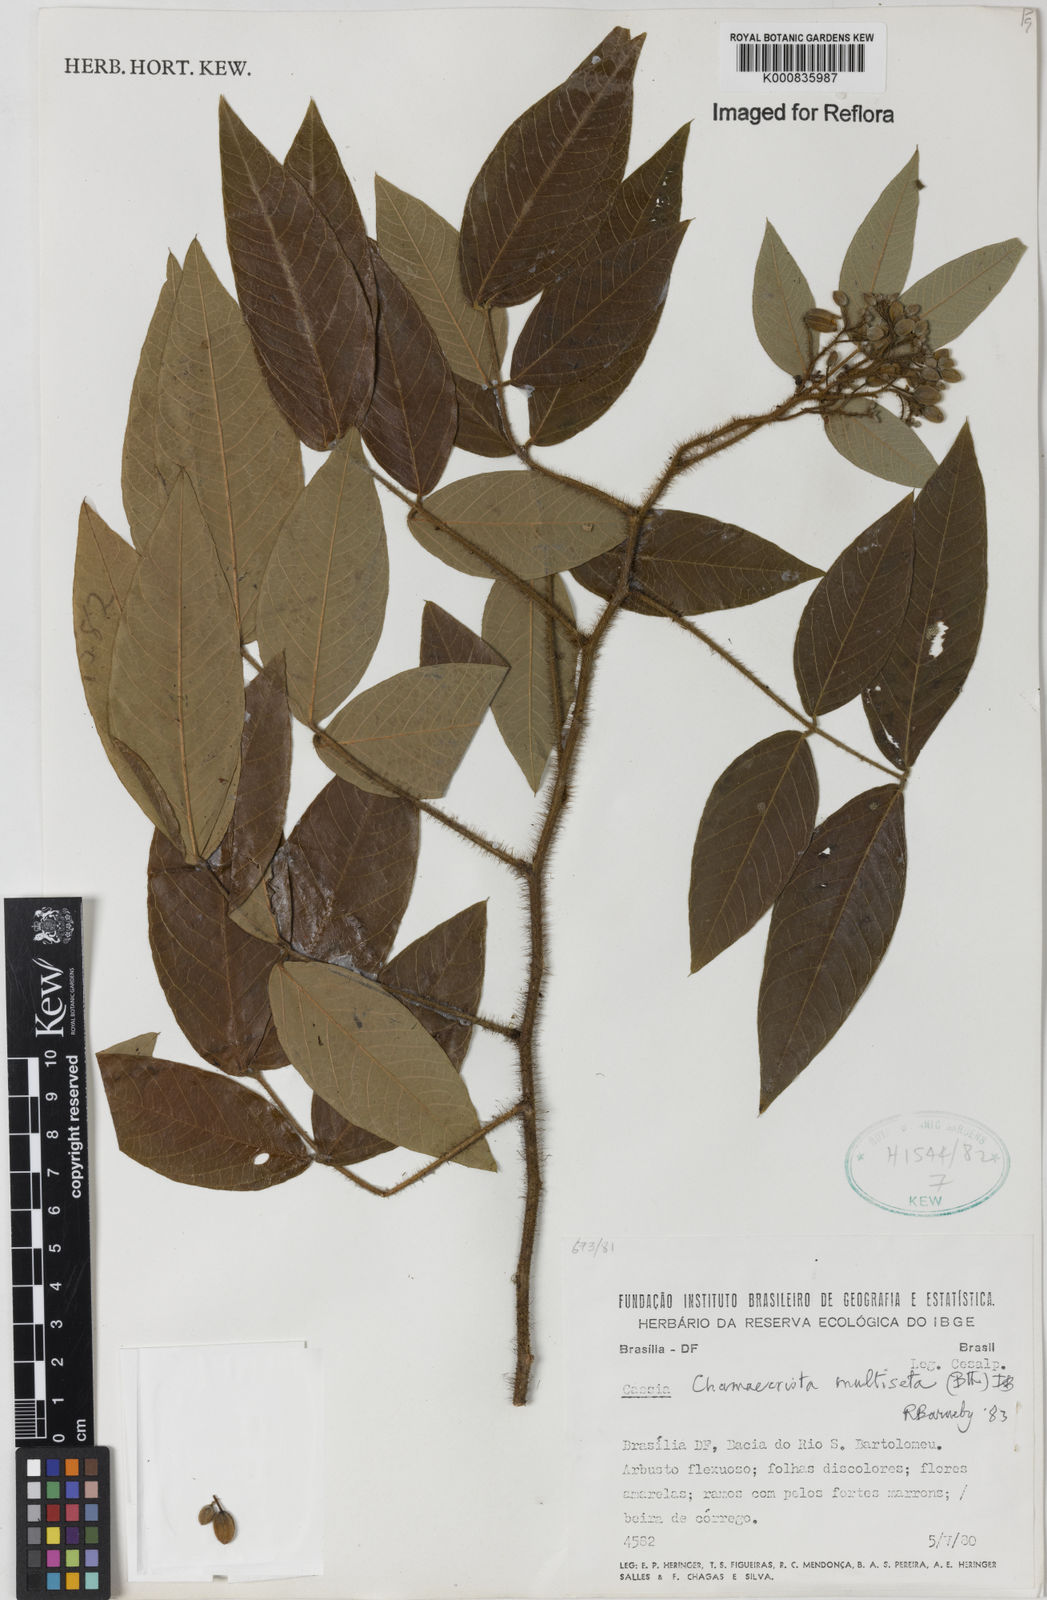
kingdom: Plantae
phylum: Tracheophyta
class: Magnoliopsida
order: Fabales
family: Fabaceae
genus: Chamaecrista
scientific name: Chamaecrista multiseta
